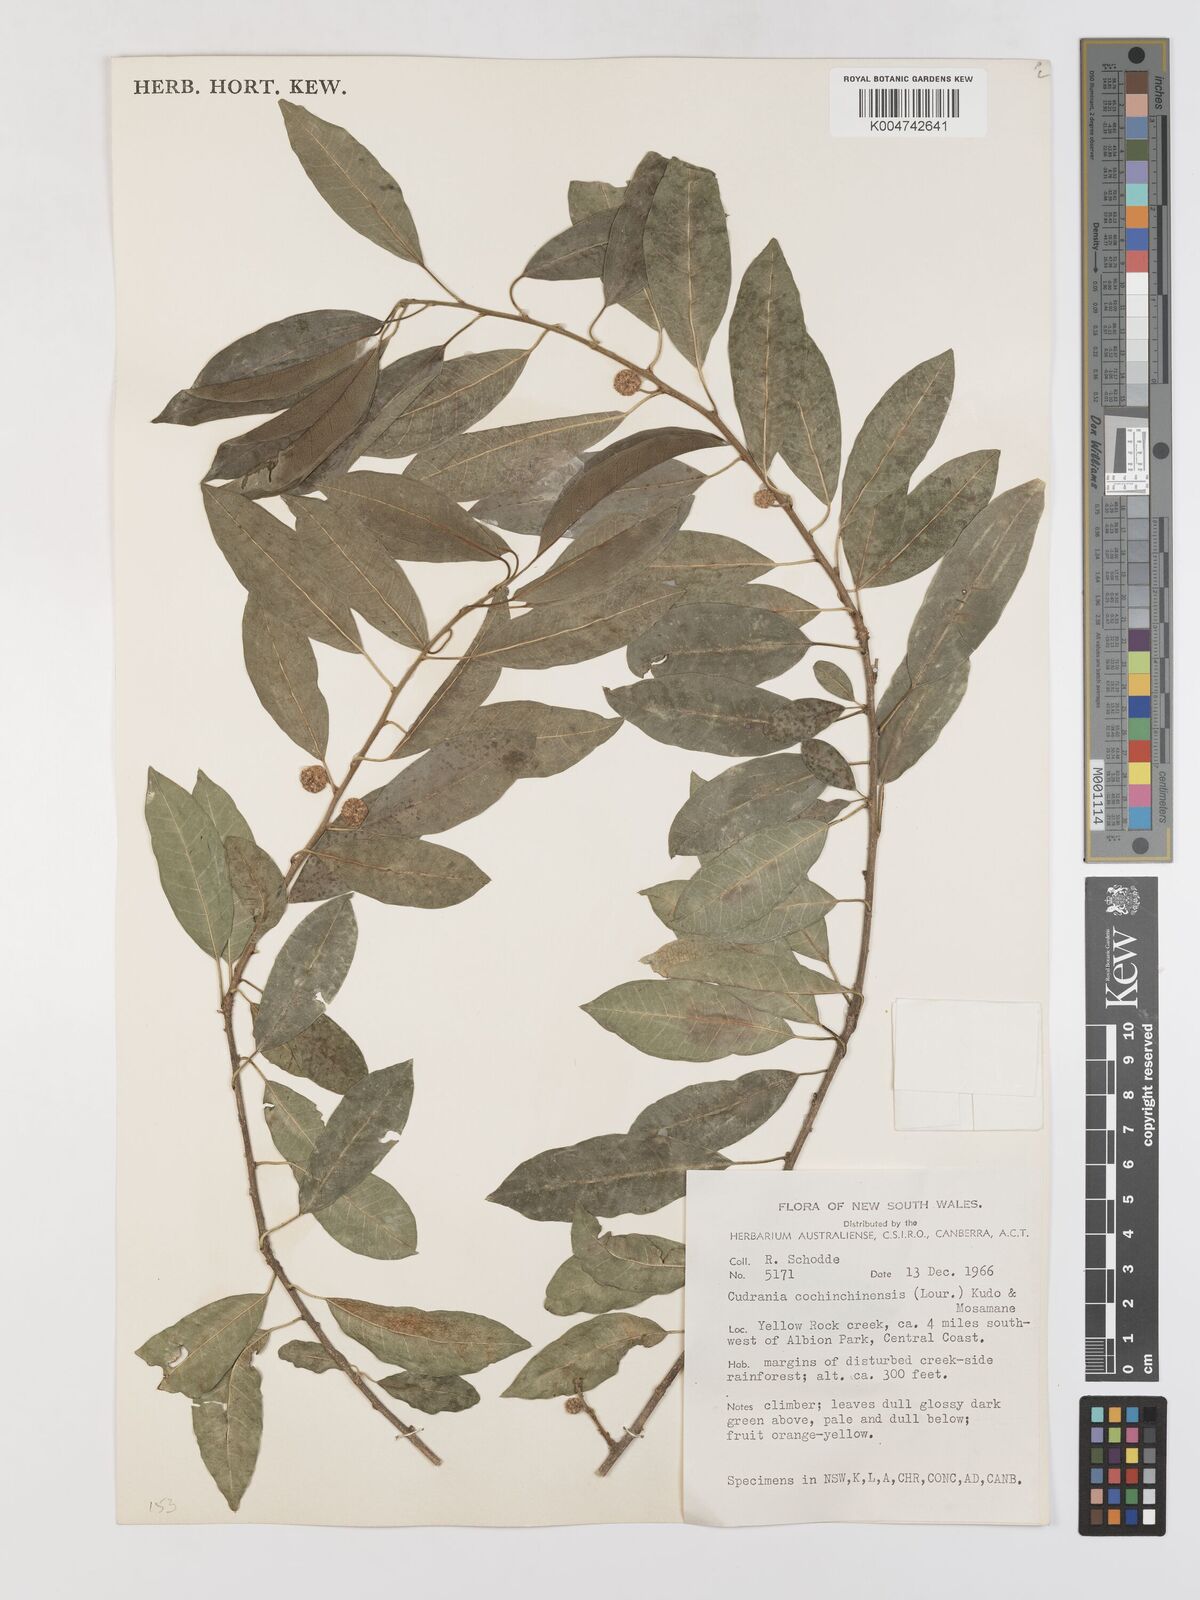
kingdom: Plantae
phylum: Tracheophyta
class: Magnoliopsida
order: Rosales
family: Moraceae
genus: Maclura
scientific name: Maclura cochinchinensis
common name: Cockspurthorn
